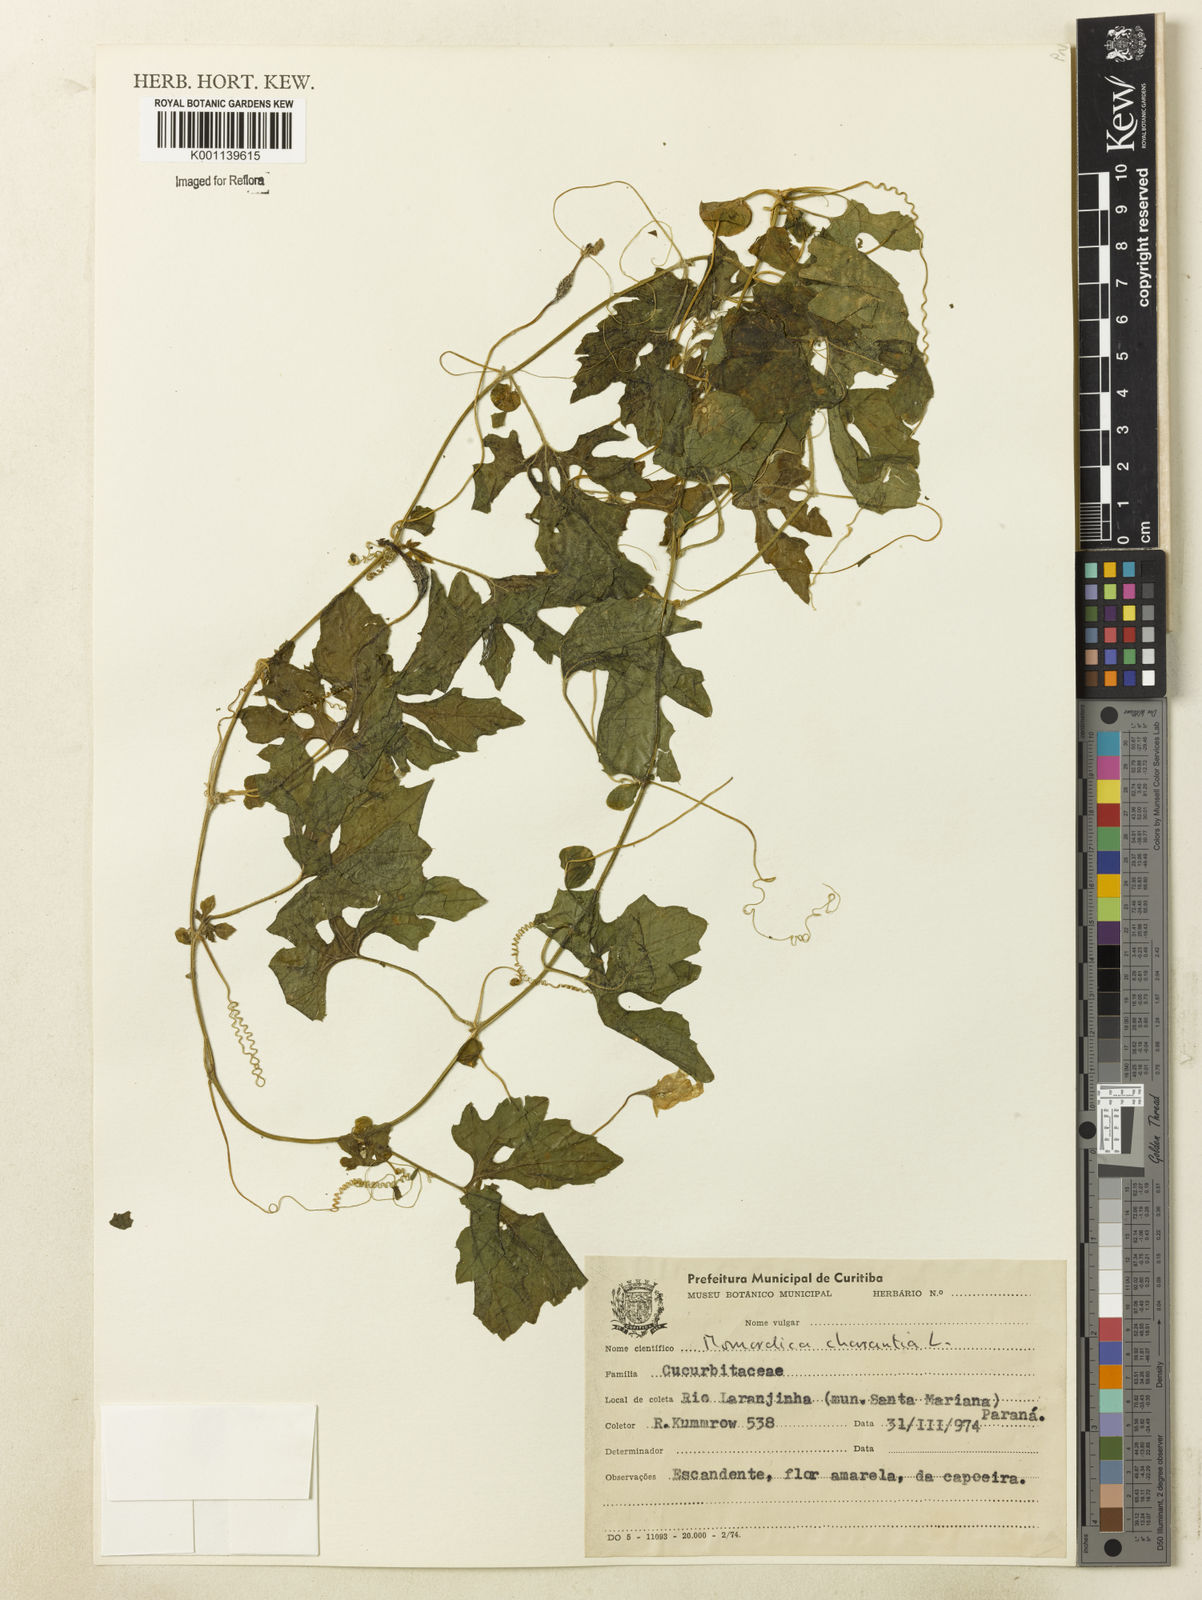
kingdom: Plantae
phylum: Tracheophyta
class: Magnoliopsida
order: Cucurbitales
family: Cucurbitaceae
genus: Momordica
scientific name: Momordica charantia
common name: Balsampear
